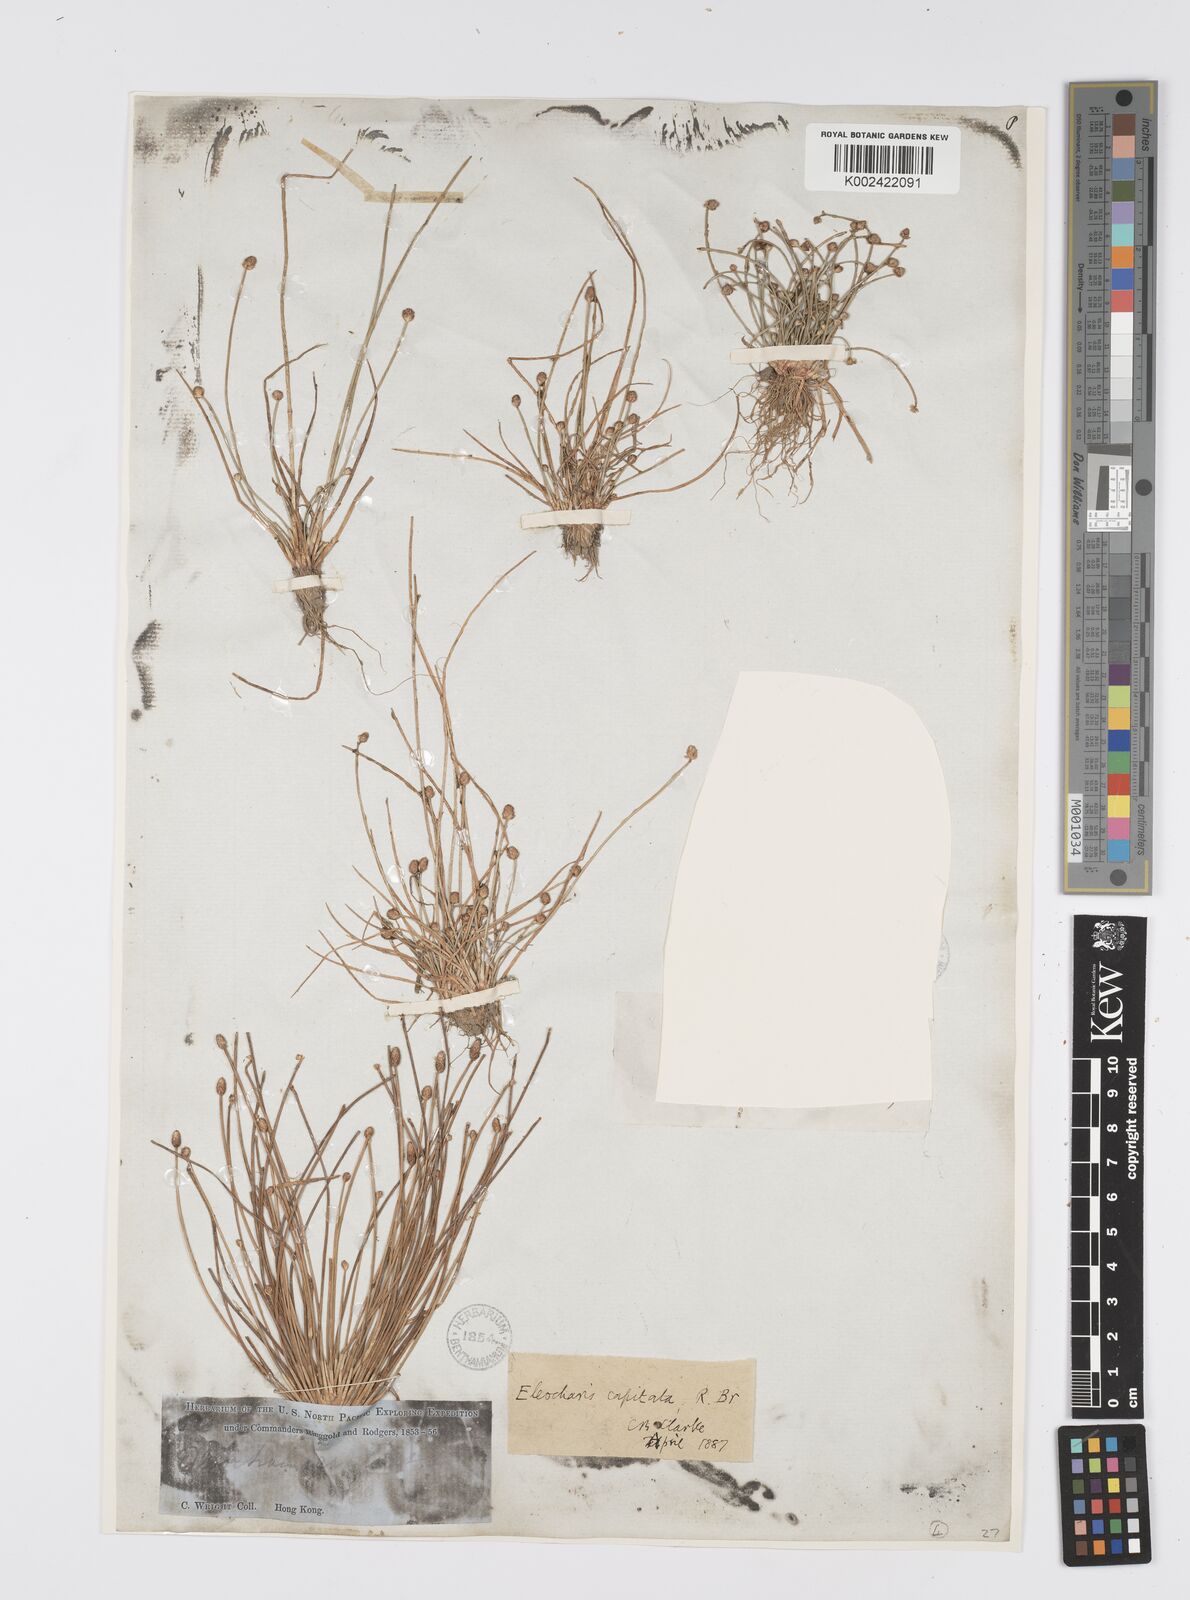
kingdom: Plantae
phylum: Tracheophyta
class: Liliopsida
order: Poales
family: Cyperaceae
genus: Eleocharis
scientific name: Eleocharis geniculata
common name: Canada spikesedge
